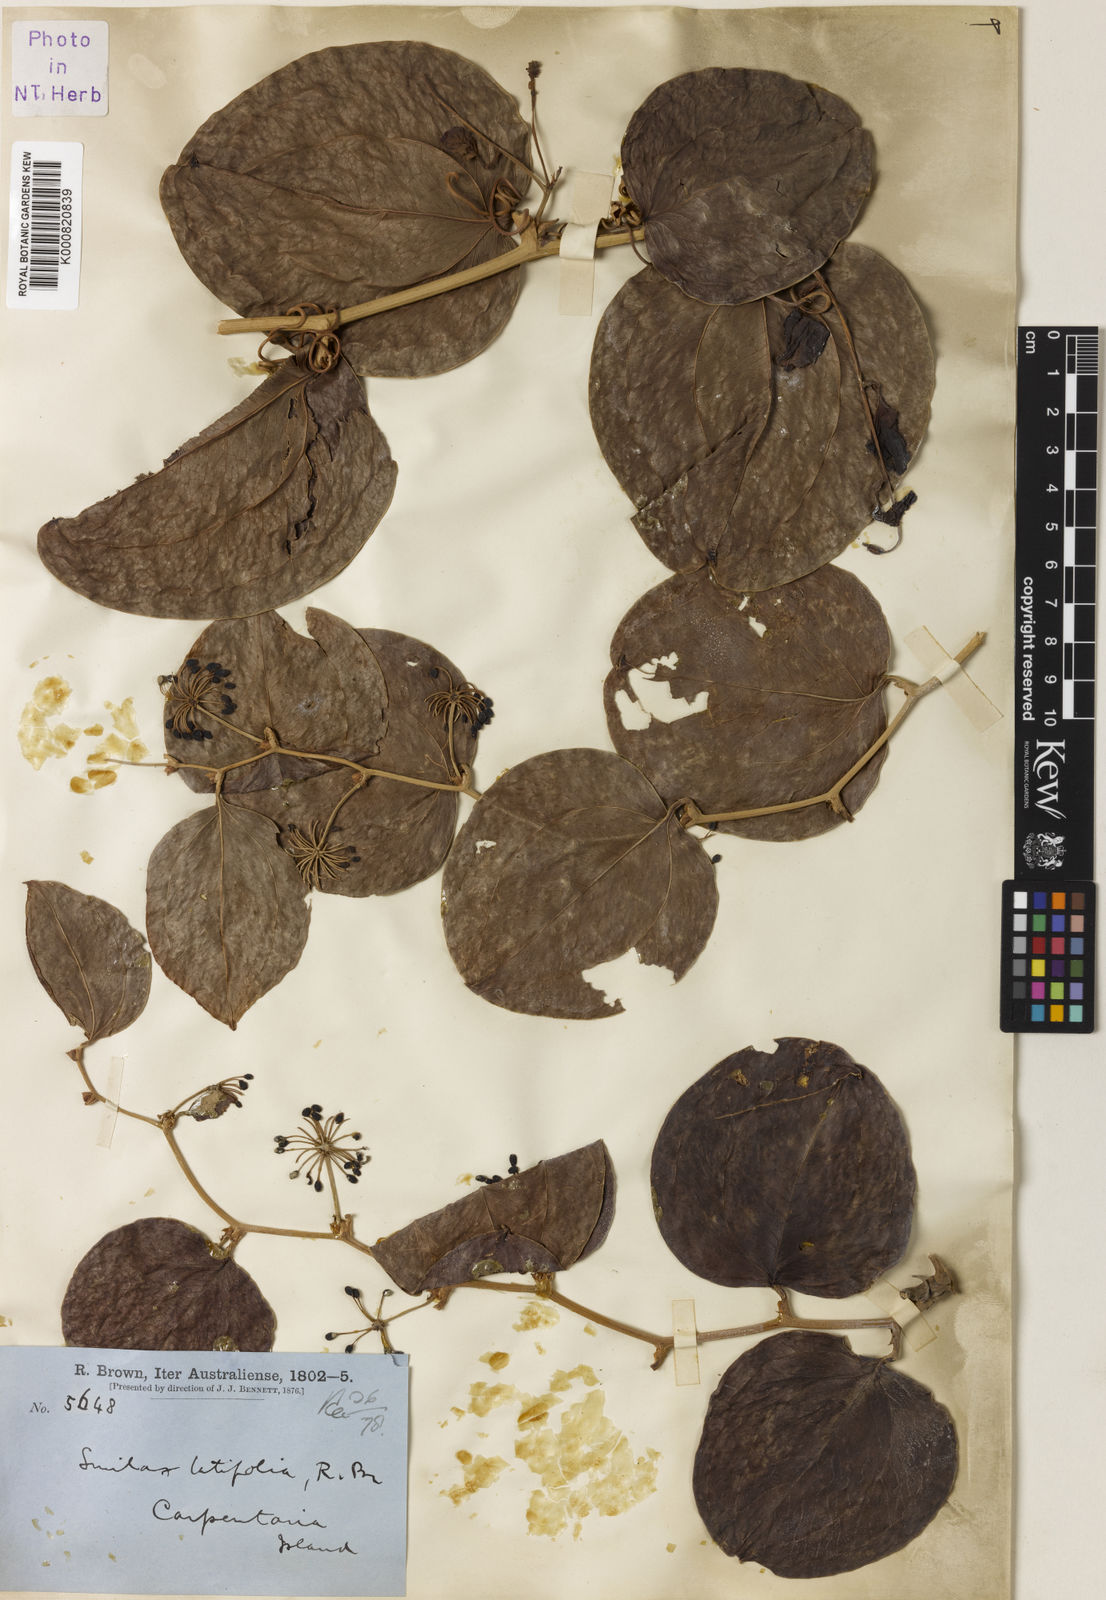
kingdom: Plantae
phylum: Tracheophyta
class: Liliopsida
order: Liliales
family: Smilacaceae
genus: Smilax
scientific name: Smilax australis
